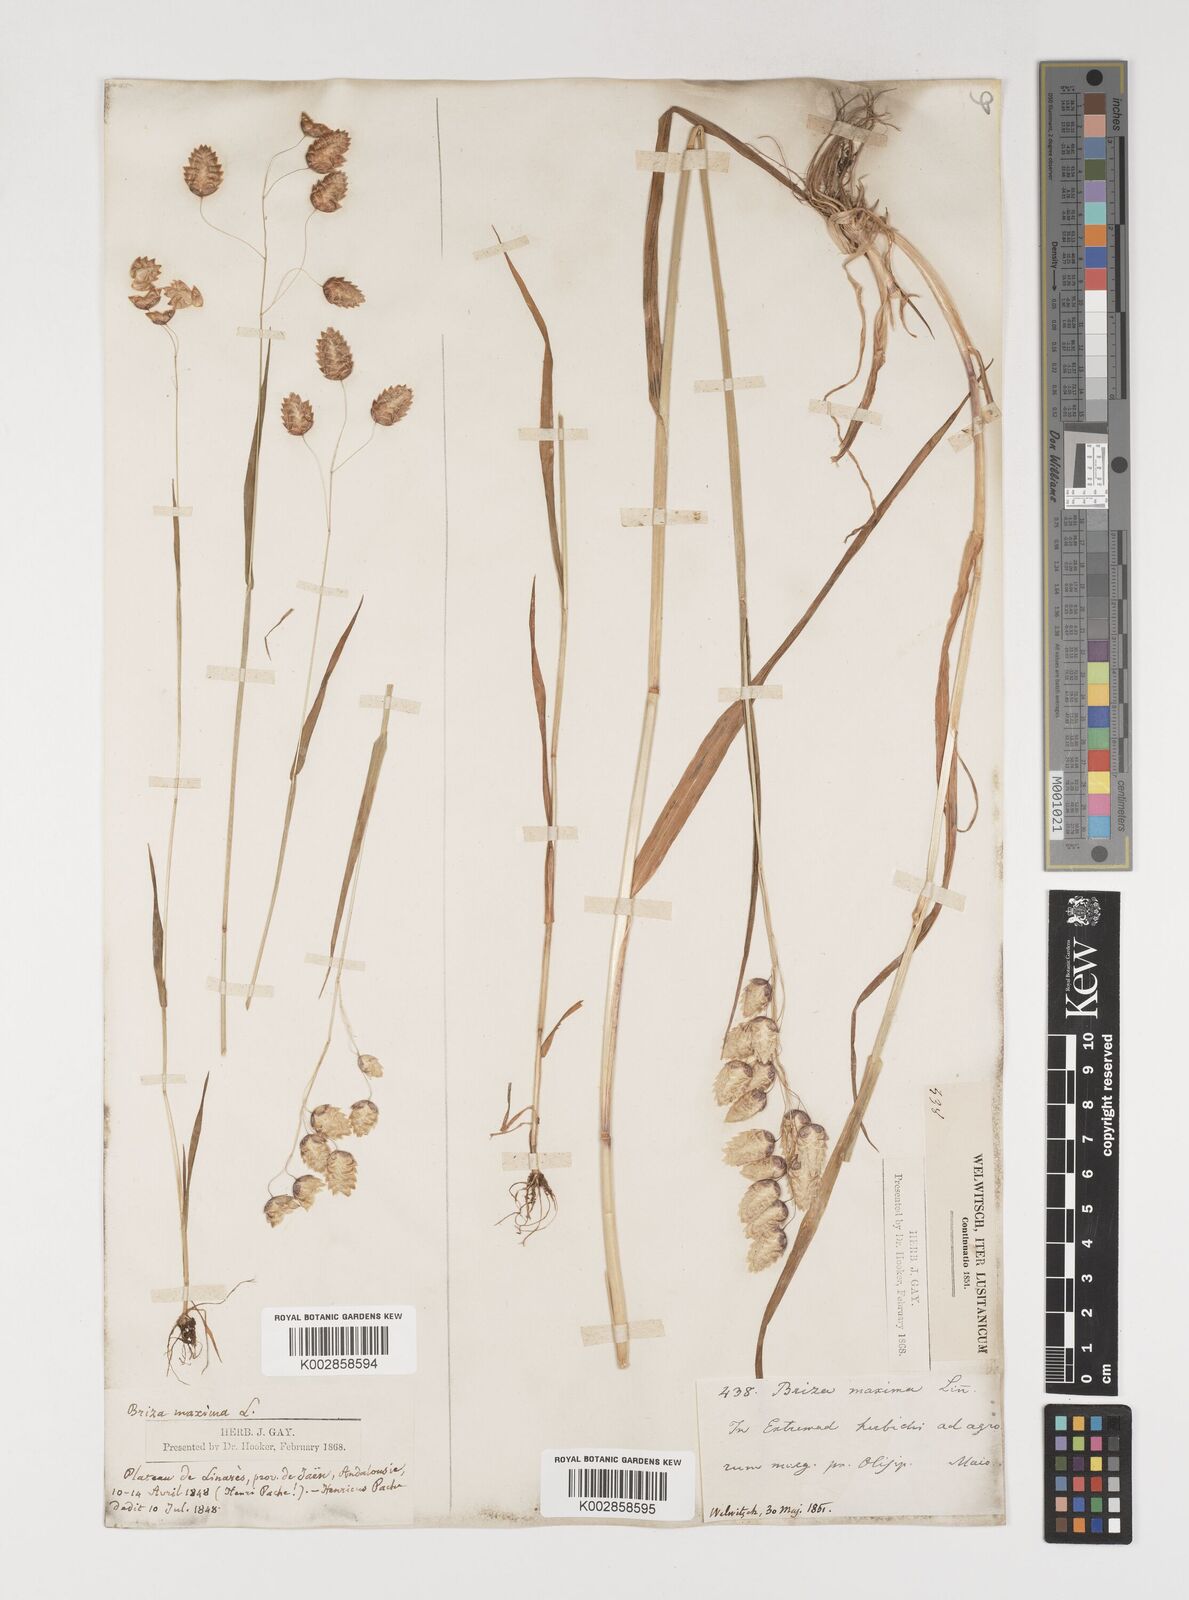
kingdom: Plantae
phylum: Tracheophyta
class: Liliopsida
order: Poales
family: Poaceae
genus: Briza
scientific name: Briza maxima
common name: Big quakinggrass
